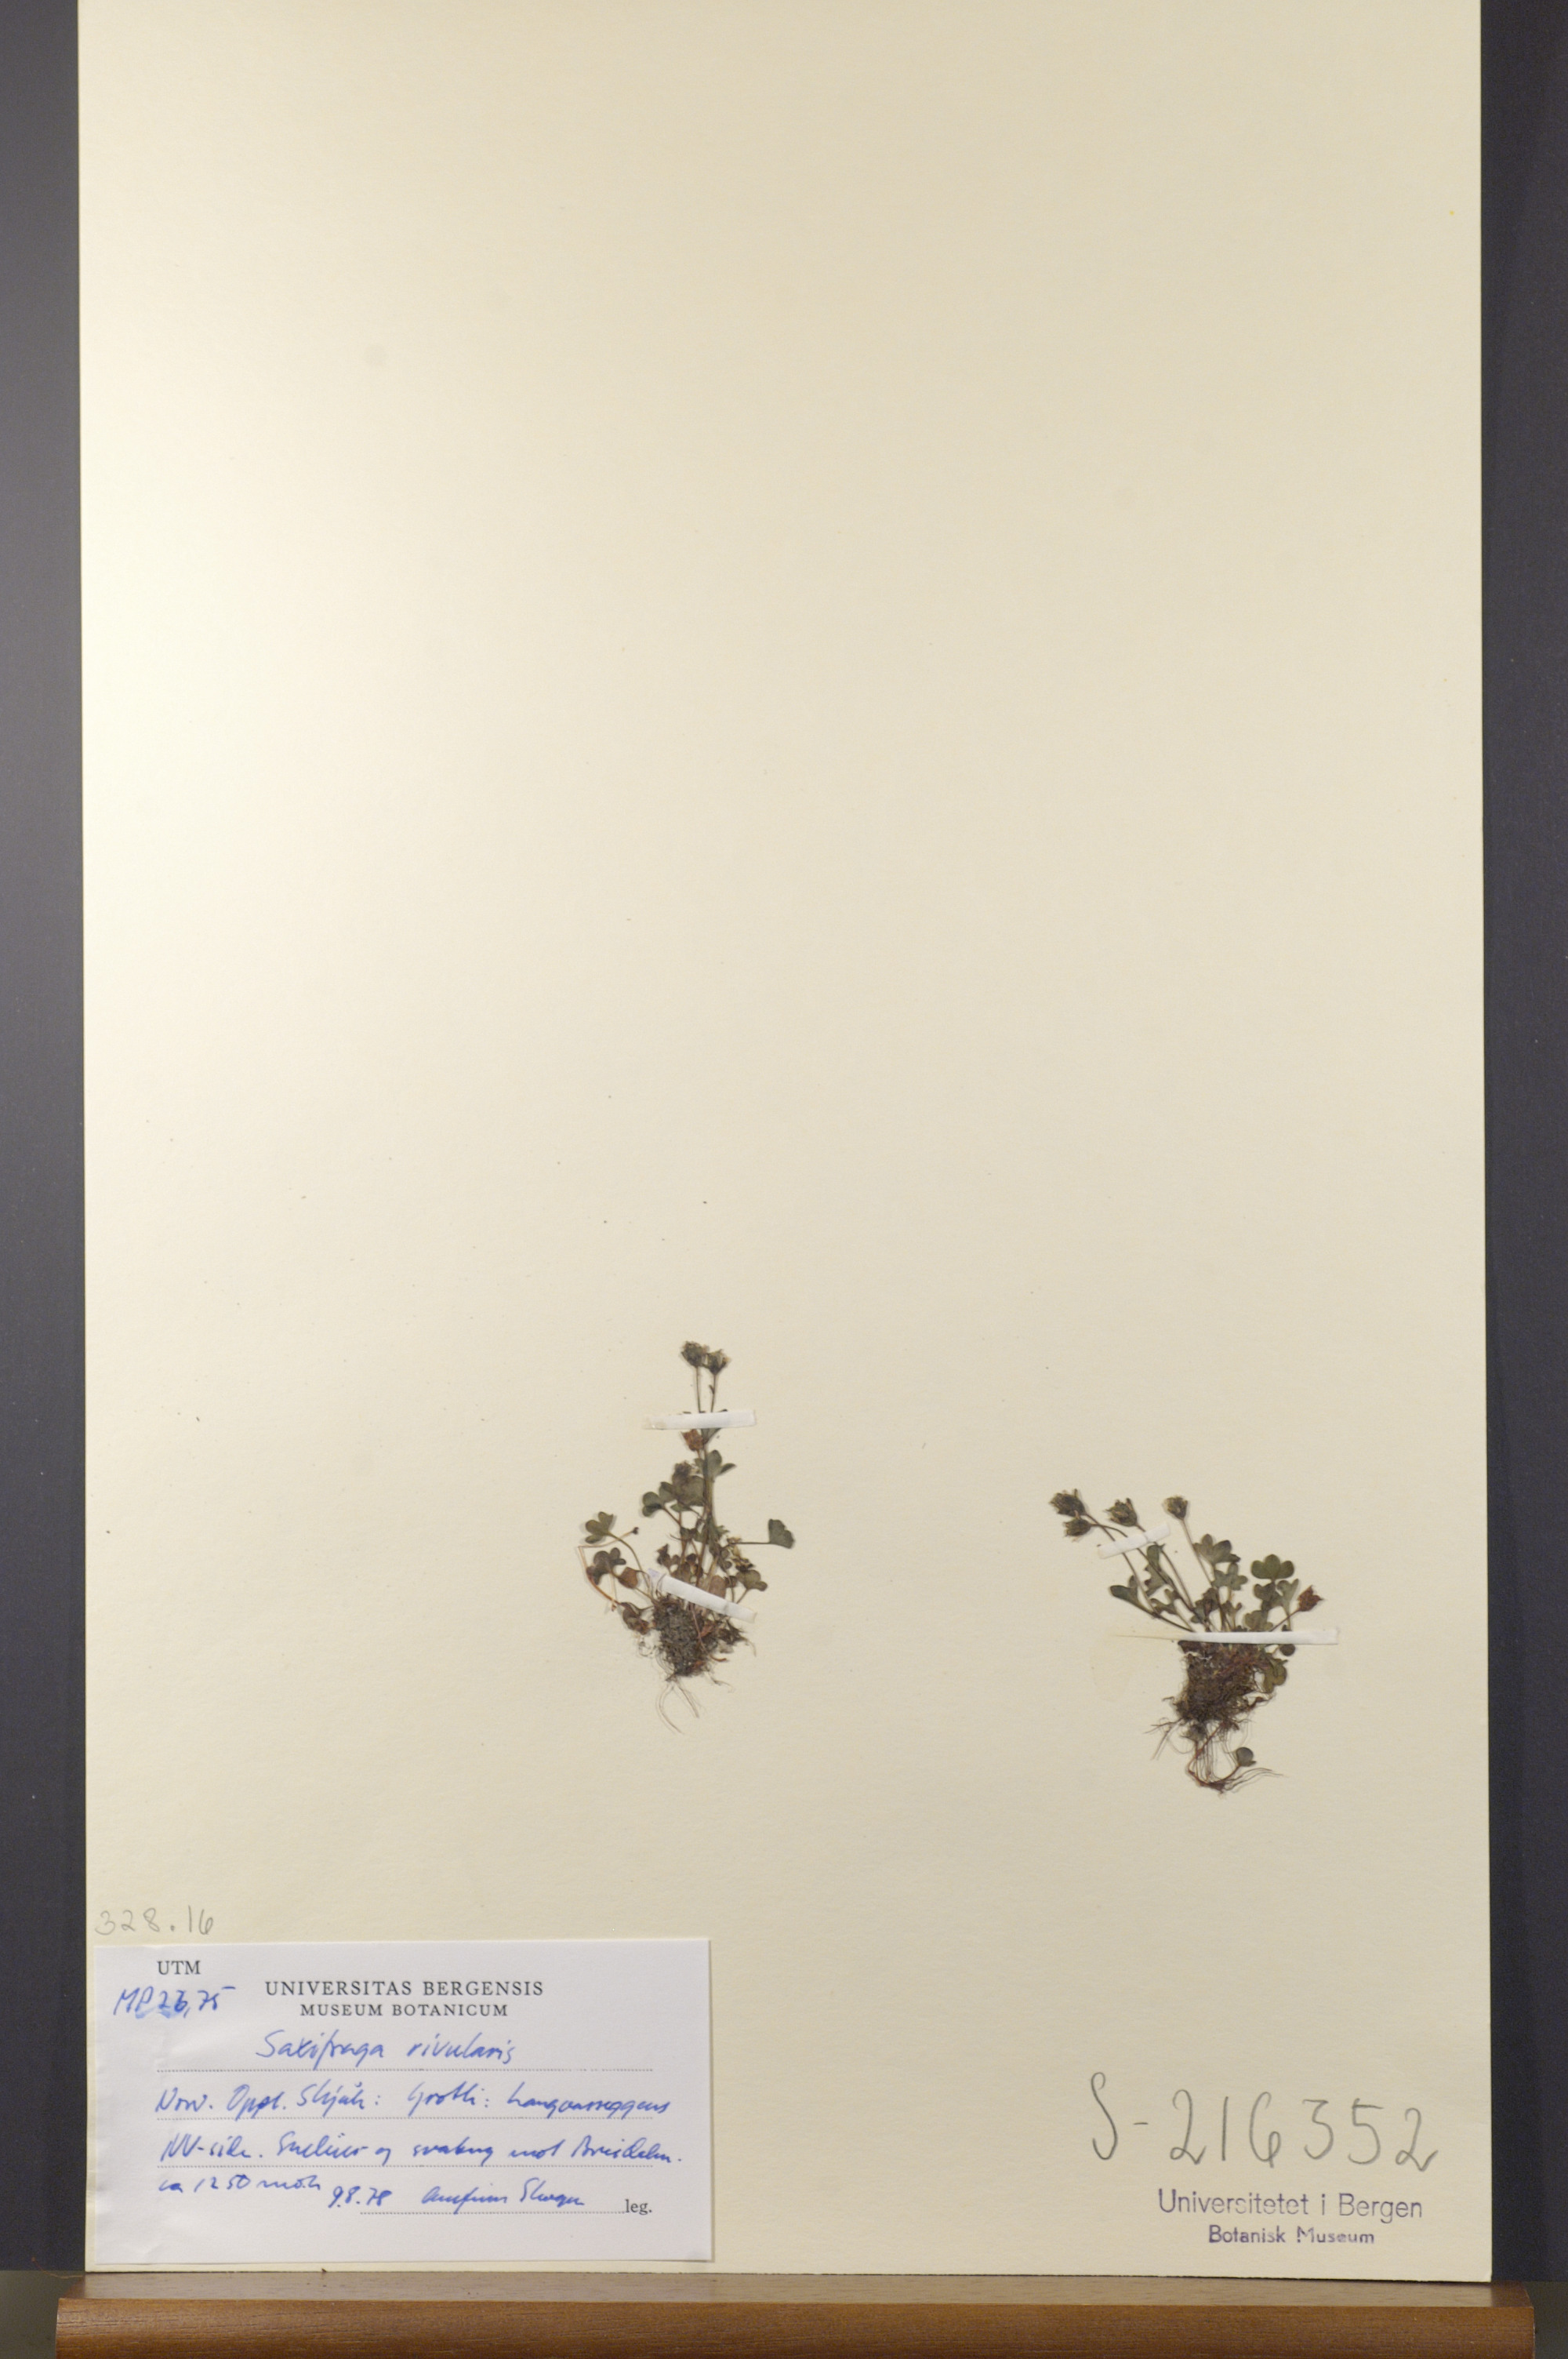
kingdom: Plantae
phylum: Tracheophyta
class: Magnoliopsida
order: Saxifragales
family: Saxifragaceae
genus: Saxifraga
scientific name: Saxifraga rivularis
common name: Highland saxifrage
